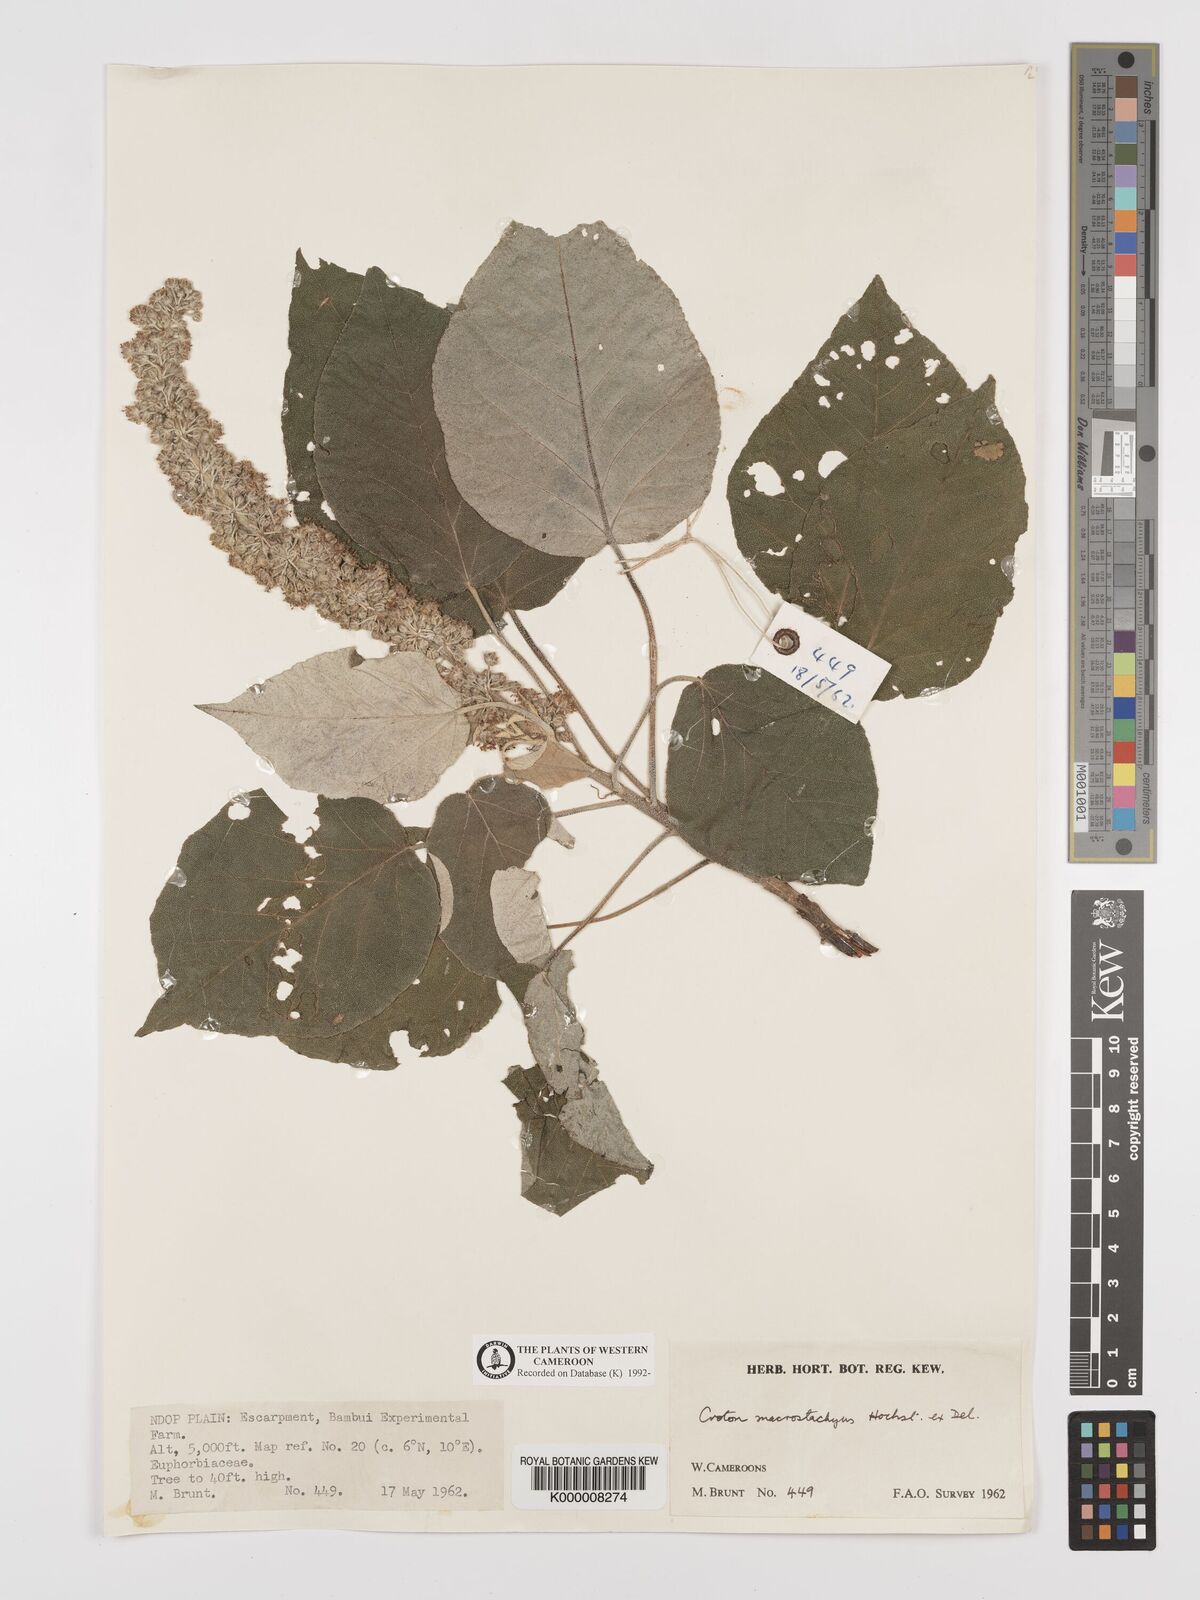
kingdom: Plantae
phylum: Tracheophyta
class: Magnoliopsida
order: Malpighiales
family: Euphorbiaceae
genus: Croton
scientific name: Croton macrostachyus
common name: Mutundu
